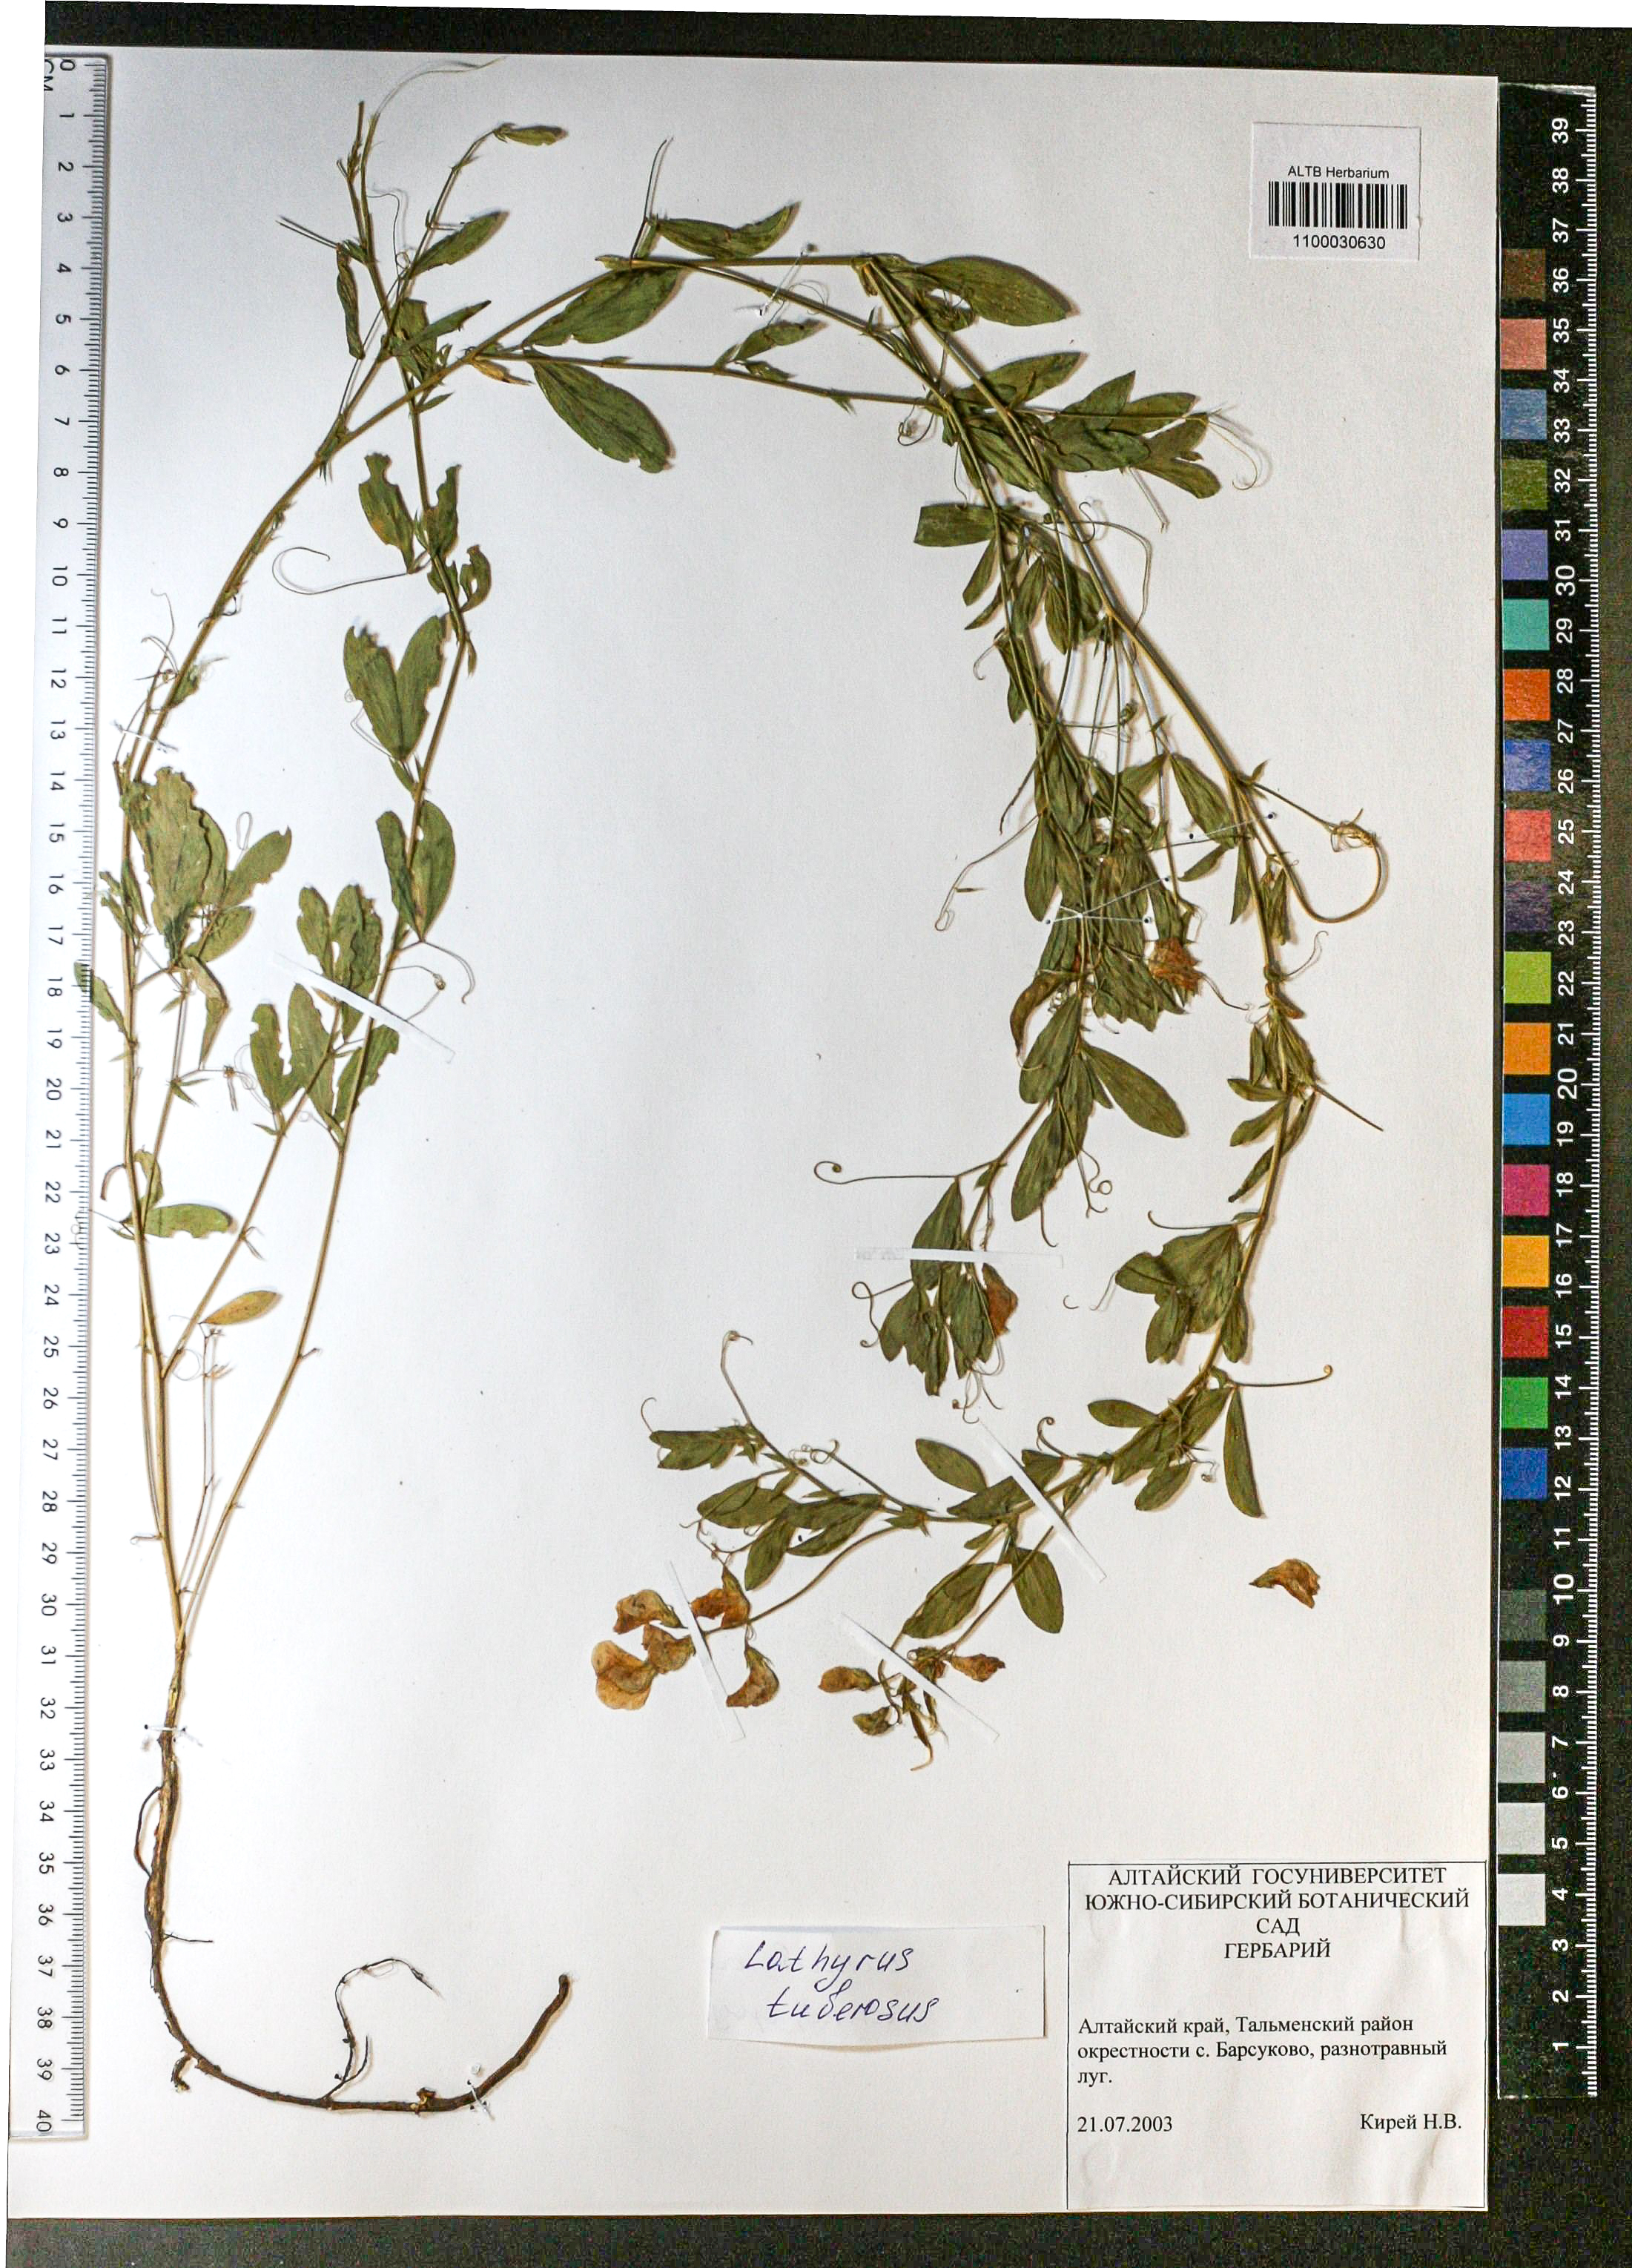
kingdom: Plantae
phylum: Tracheophyta
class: Magnoliopsida
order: Fabales
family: Fabaceae
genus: Lathyrus
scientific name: Lathyrus tuberosus
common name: Tuberous pea
